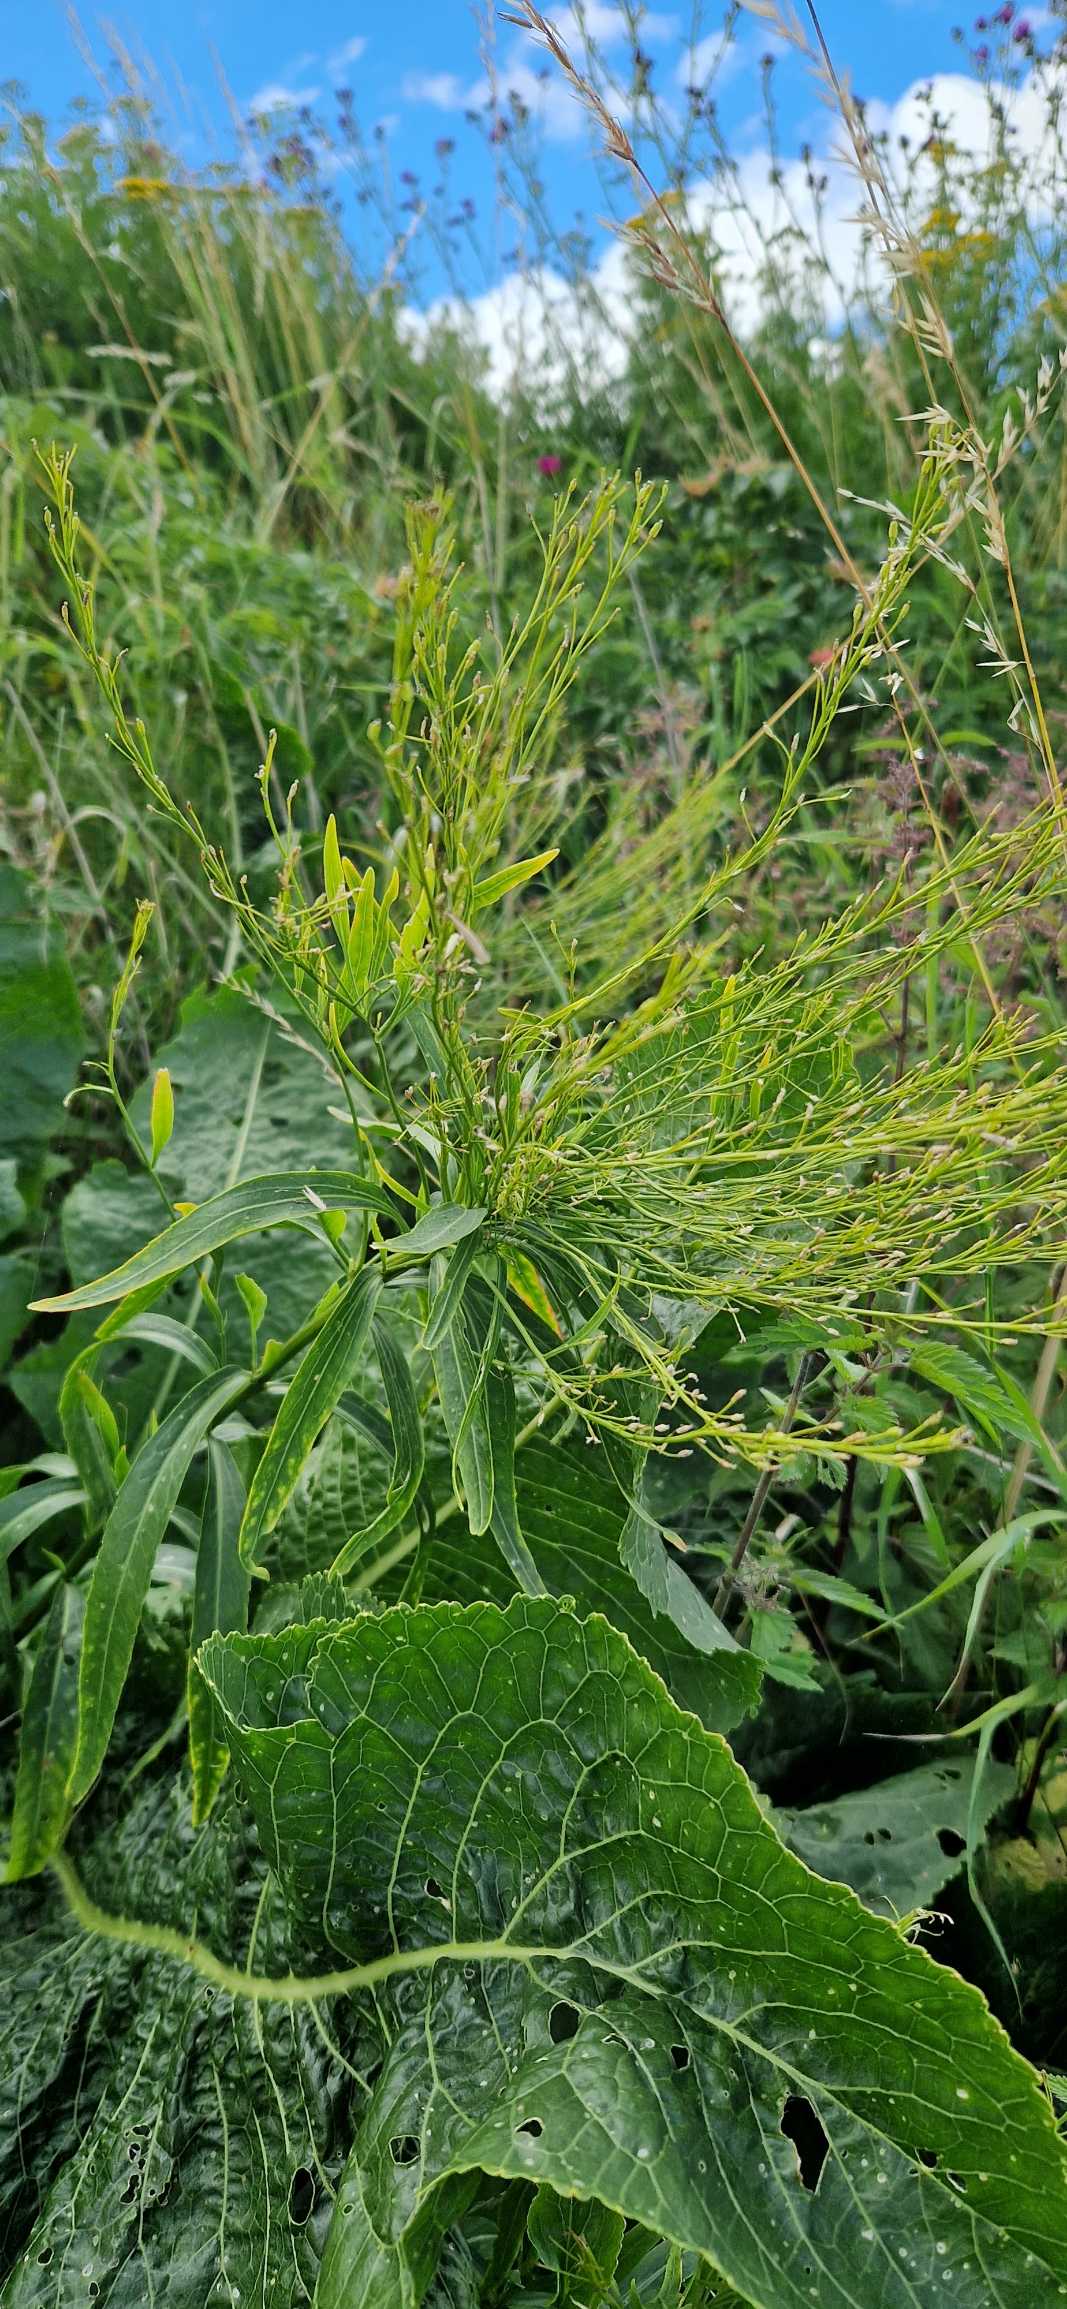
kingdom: Plantae
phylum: Tracheophyta
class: Magnoliopsida
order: Brassicales
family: Brassicaceae
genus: Armoracia
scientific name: Armoracia rusticana
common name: Peberrod
